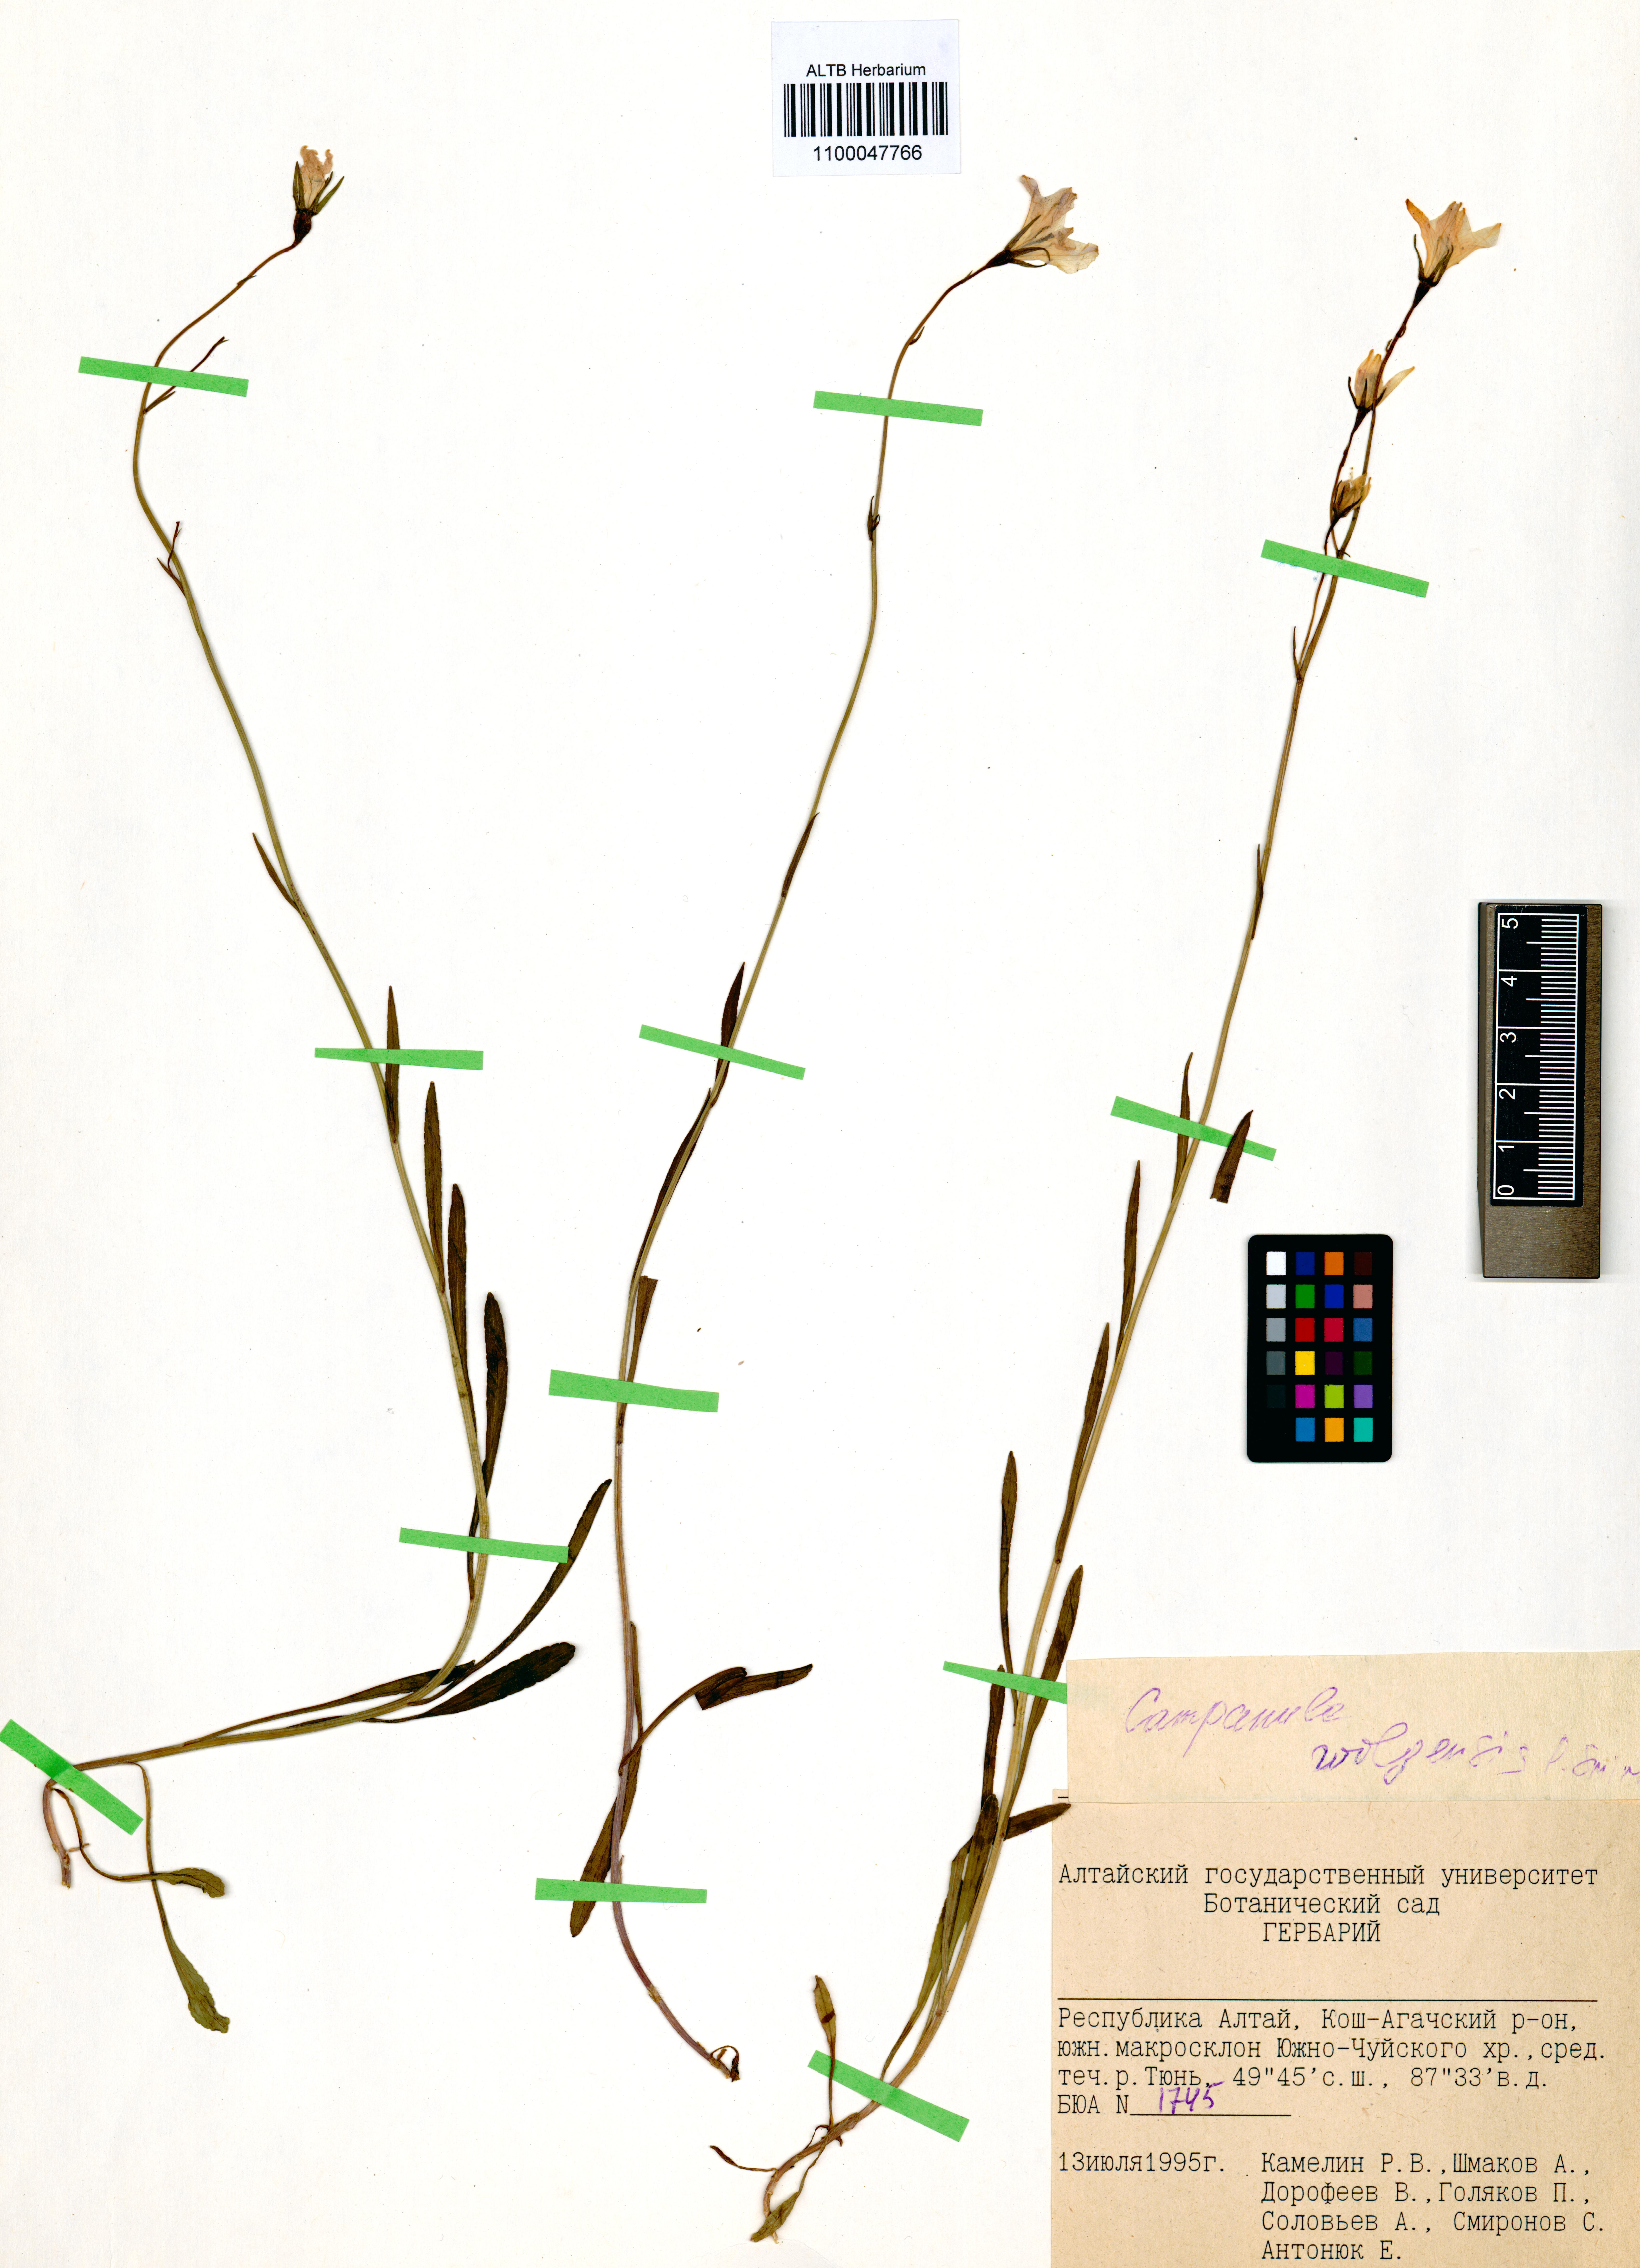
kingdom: Plantae
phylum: Tracheophyta
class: Magnoliopsida
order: Asterales
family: Campanulaceae
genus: Campanula
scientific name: Campanula stevenii
